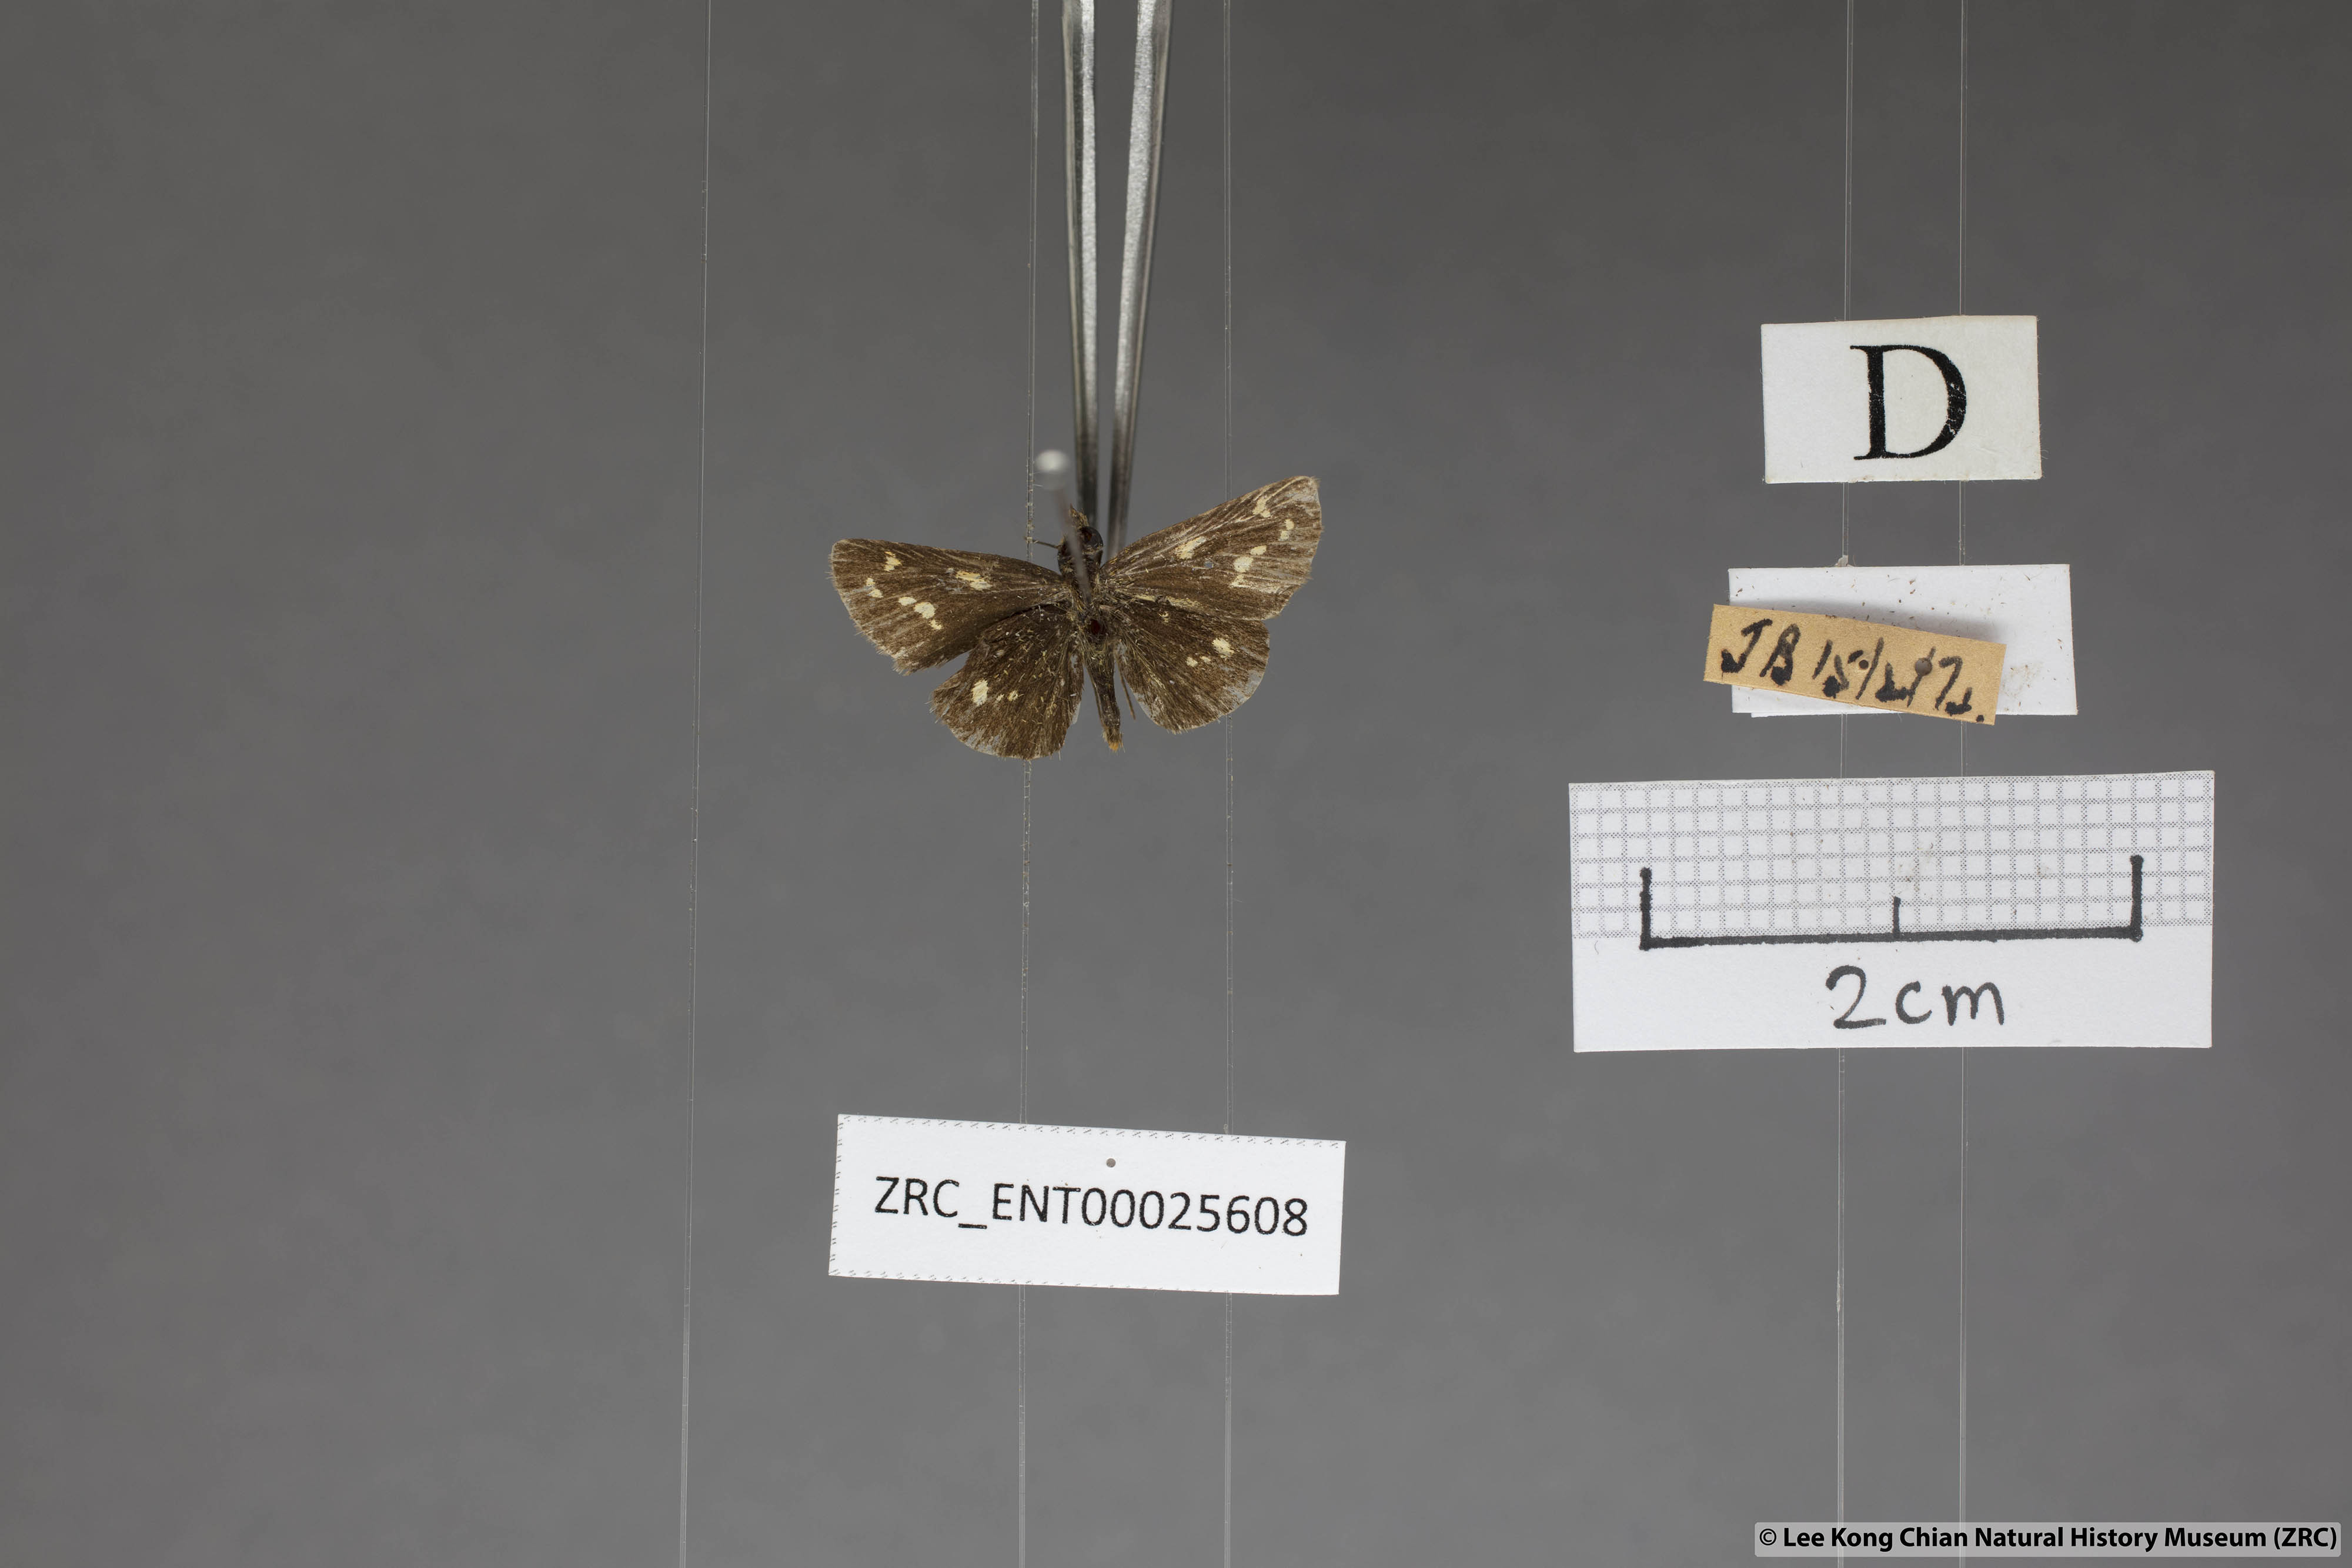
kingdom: Animalia
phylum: Arthropoda
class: Insecta
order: Lepidoptera
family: Hesperiidae
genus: Taractrocera
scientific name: Taractrocera ardonia
